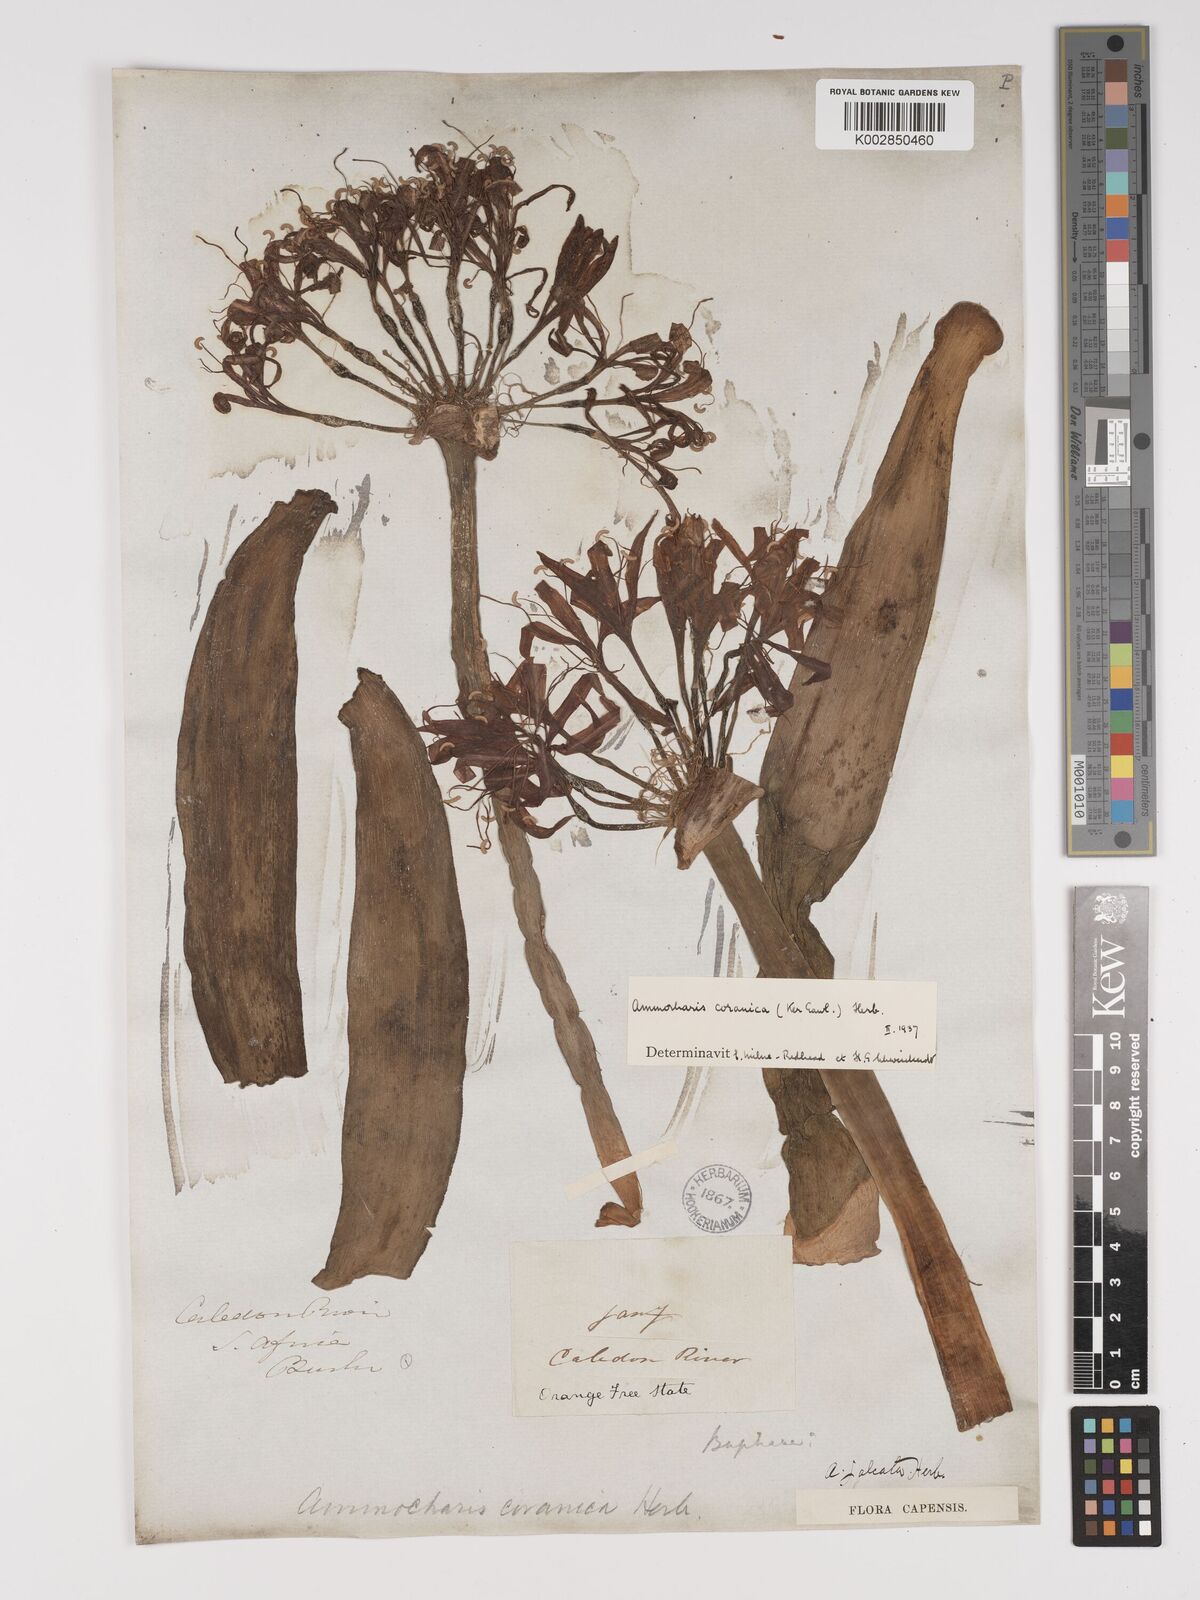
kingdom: Plantae
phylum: Tracheophyta
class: Liliopsida
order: Asparagales
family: Amaryllidaceae
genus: Ammocharis
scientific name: Ammocharis coranica
